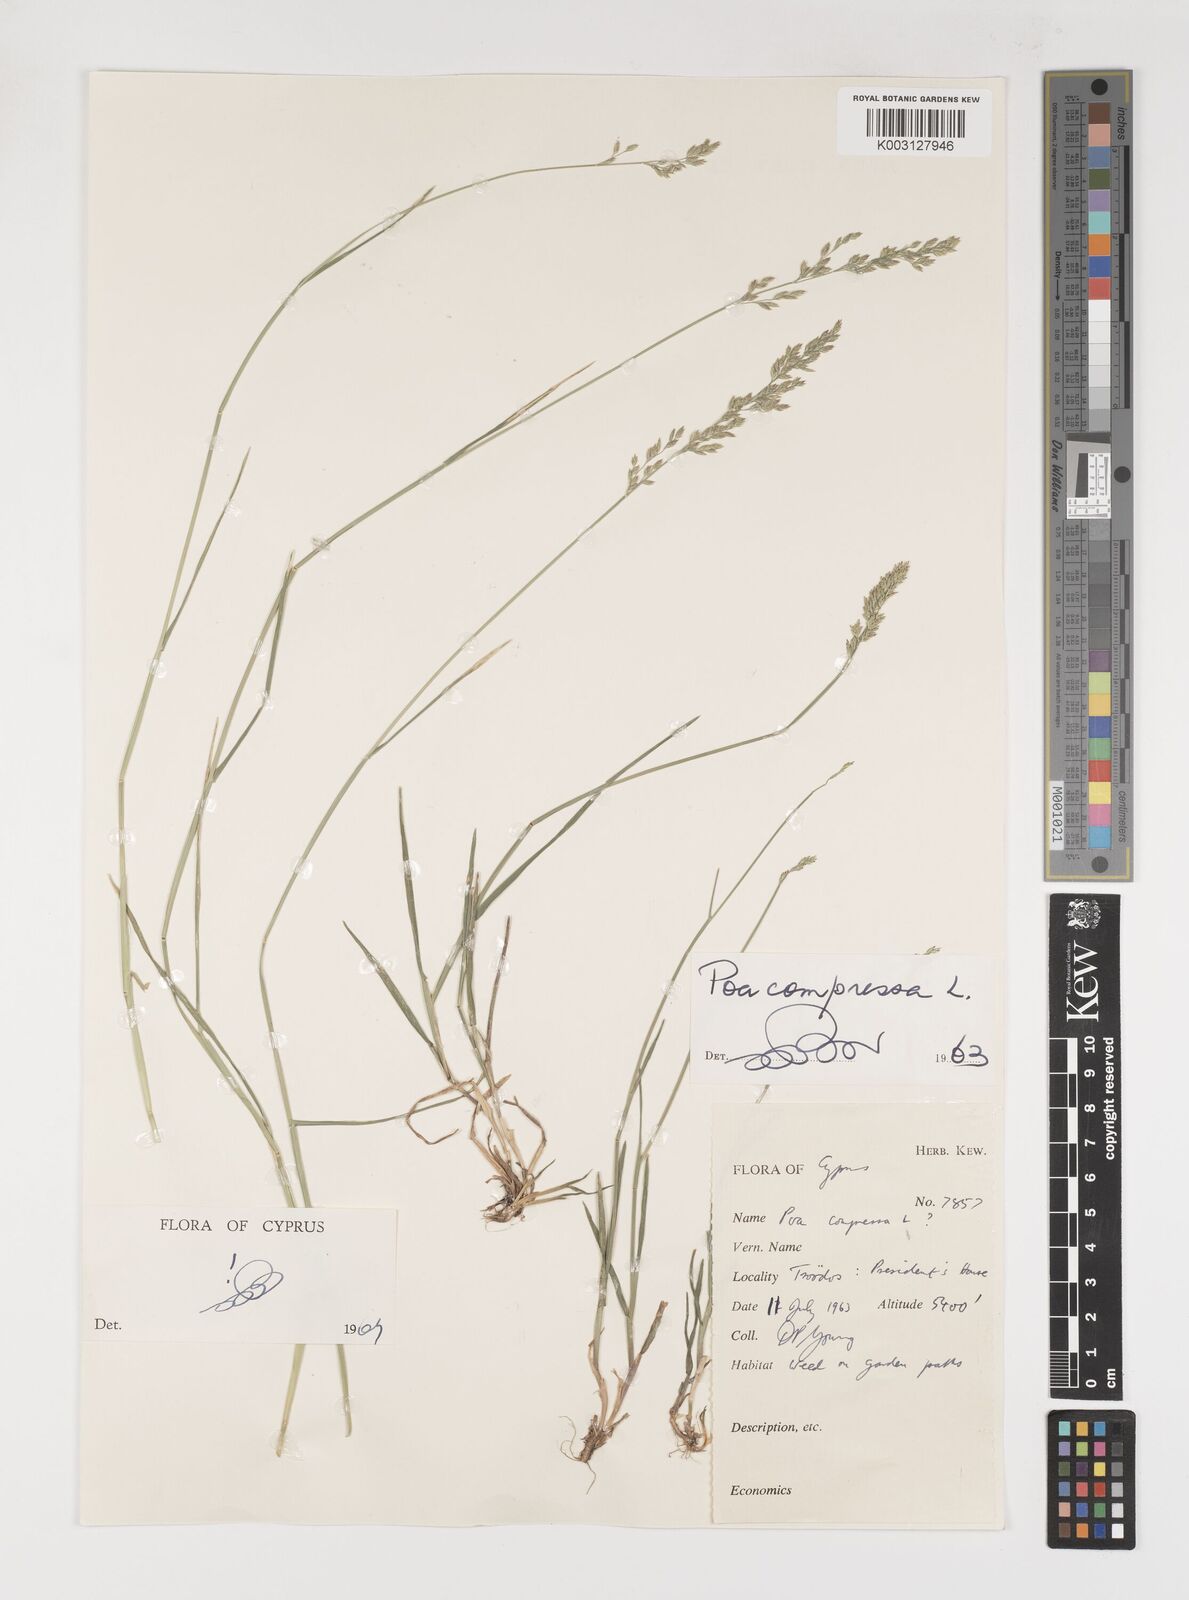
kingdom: Plantae
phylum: Tracheophyta
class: Liliopsida
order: Poales
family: Poaceae
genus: Poa
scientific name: Poa compressa
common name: Canada bluegrass
